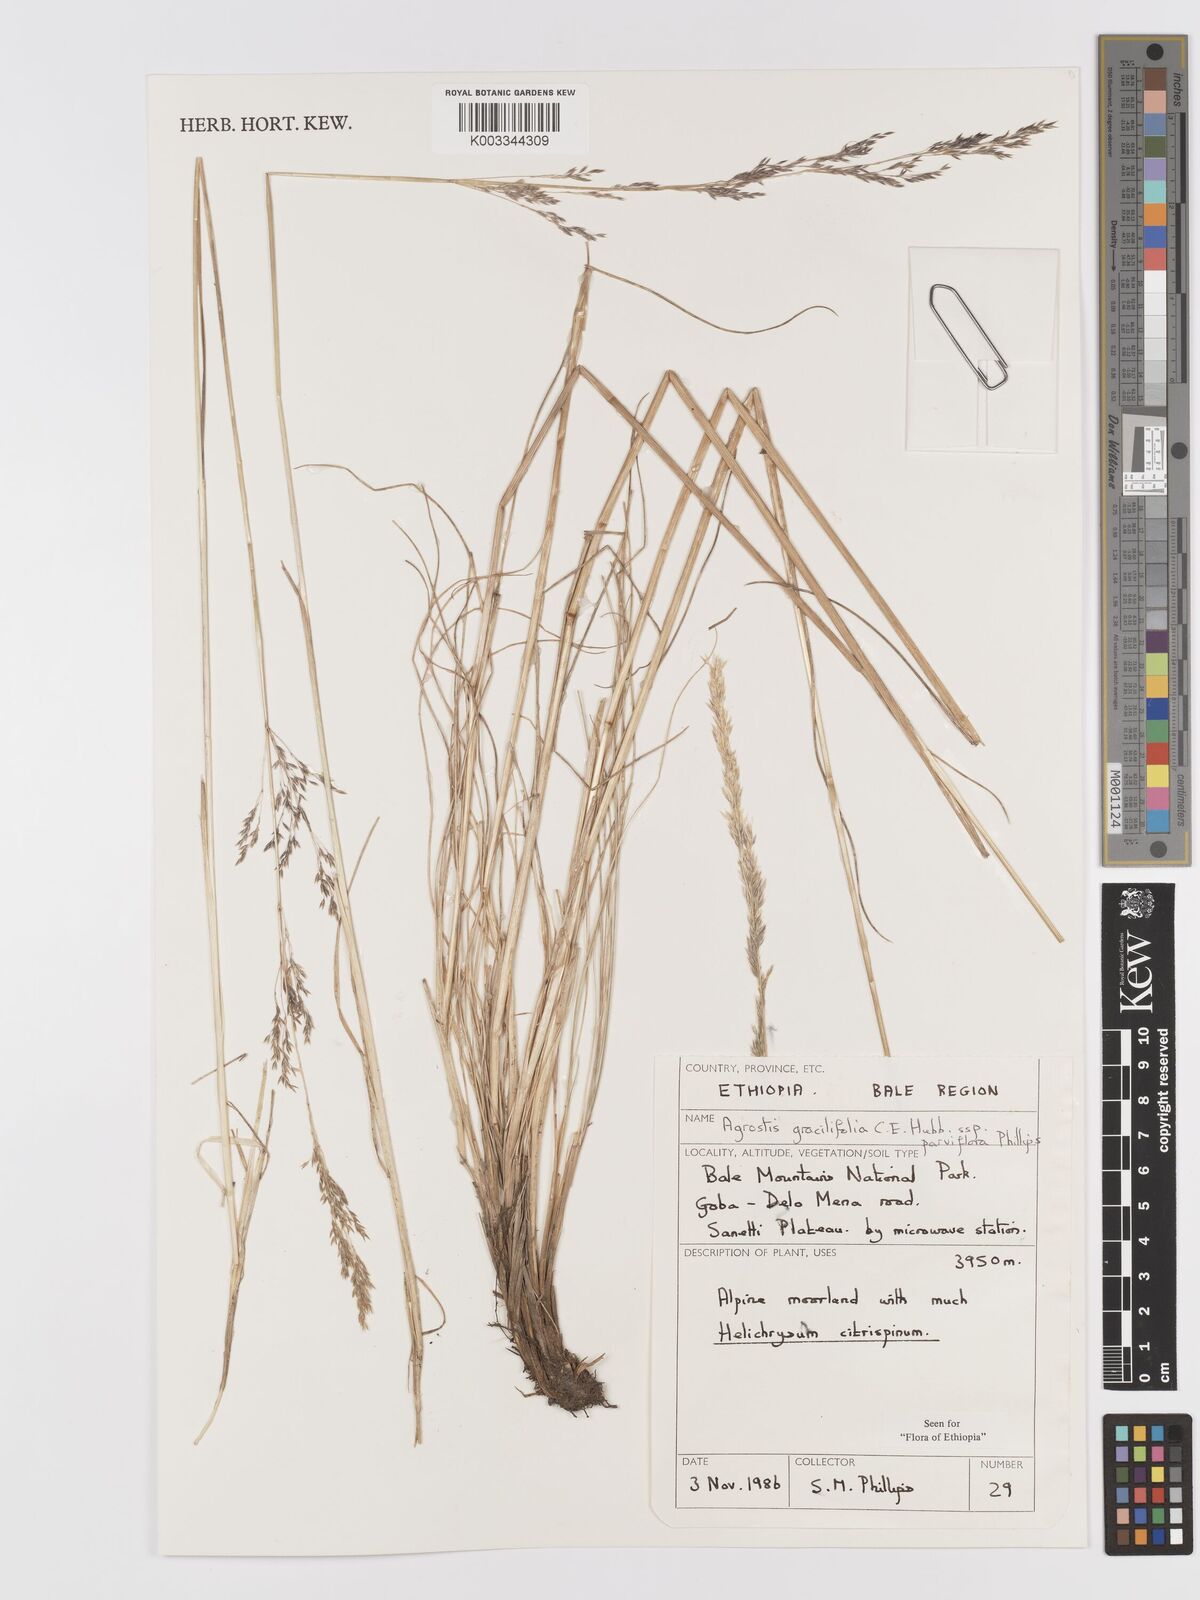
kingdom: Plantae
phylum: Tracheophyta
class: Liliopsida
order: Poales
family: Poaceae
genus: Agrostis
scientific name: Agrostis gracilifolia
